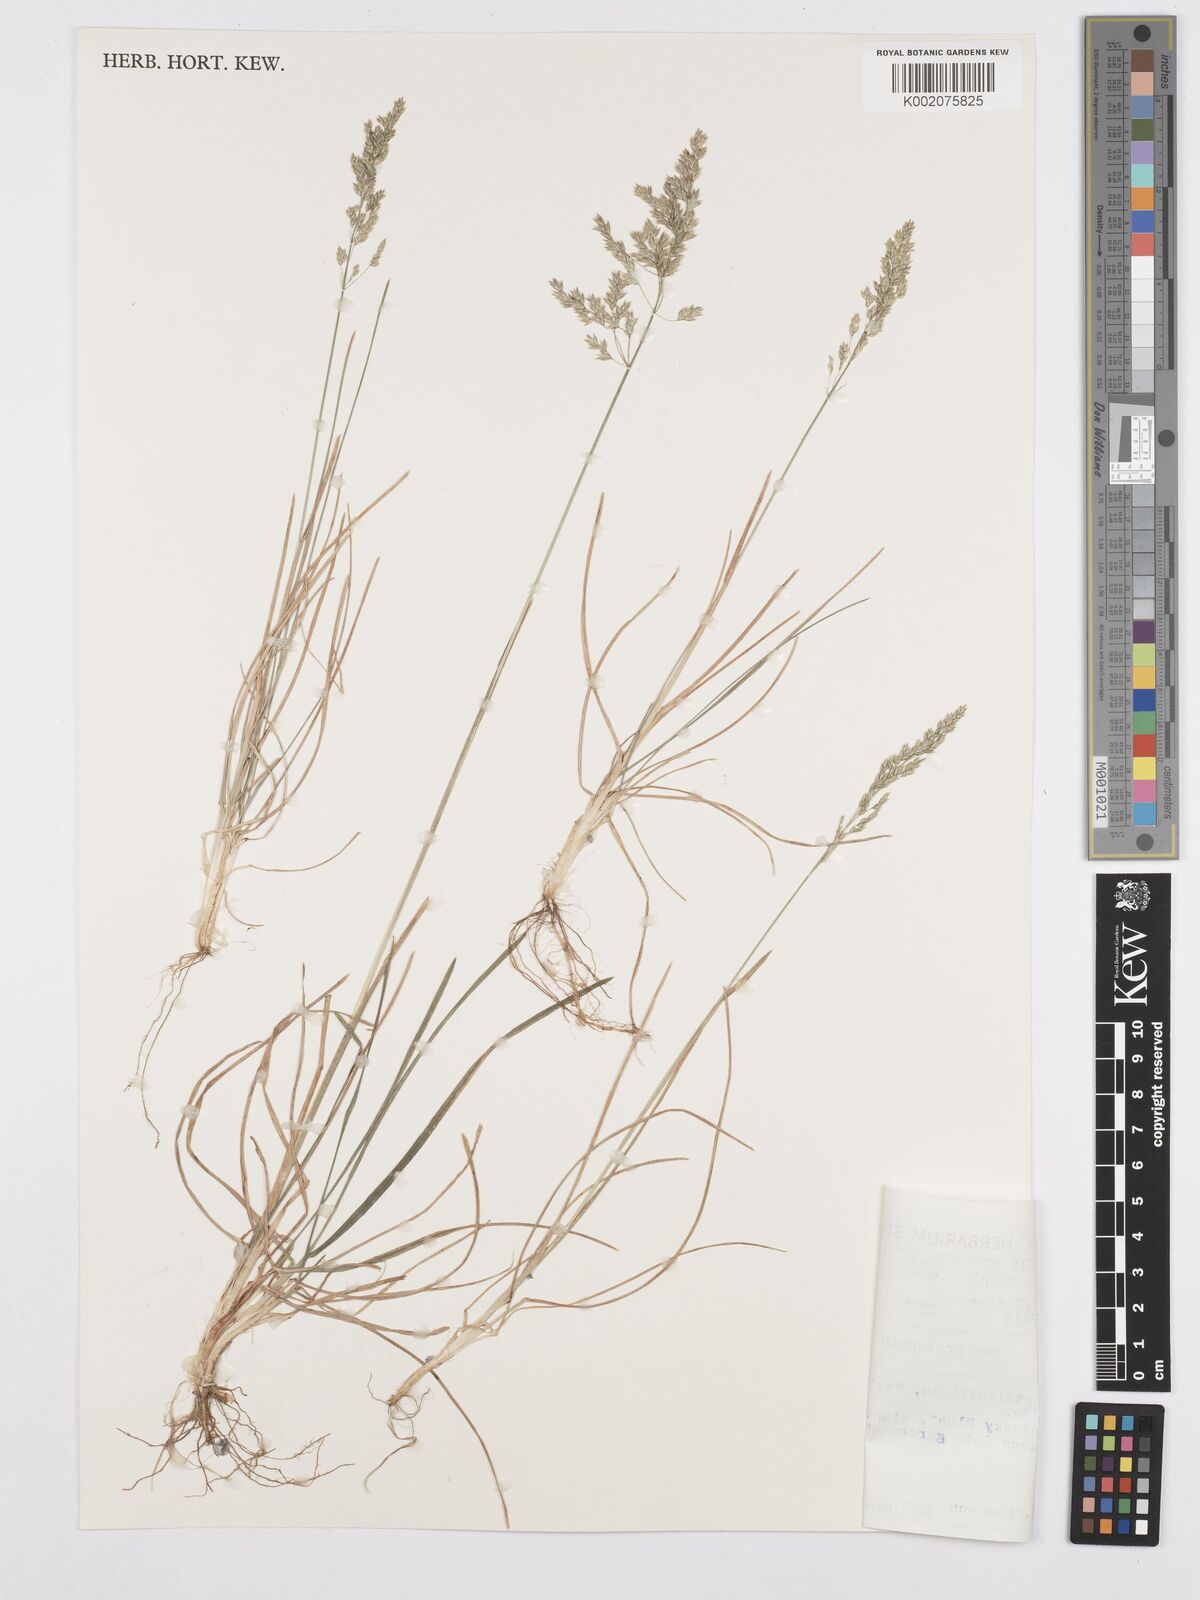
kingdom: Plantae
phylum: Tracheophyta
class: Liliopsida
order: Poales
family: Poaceae
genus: Poa
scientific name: Poa pratensis
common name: Kentucky bluegrass
